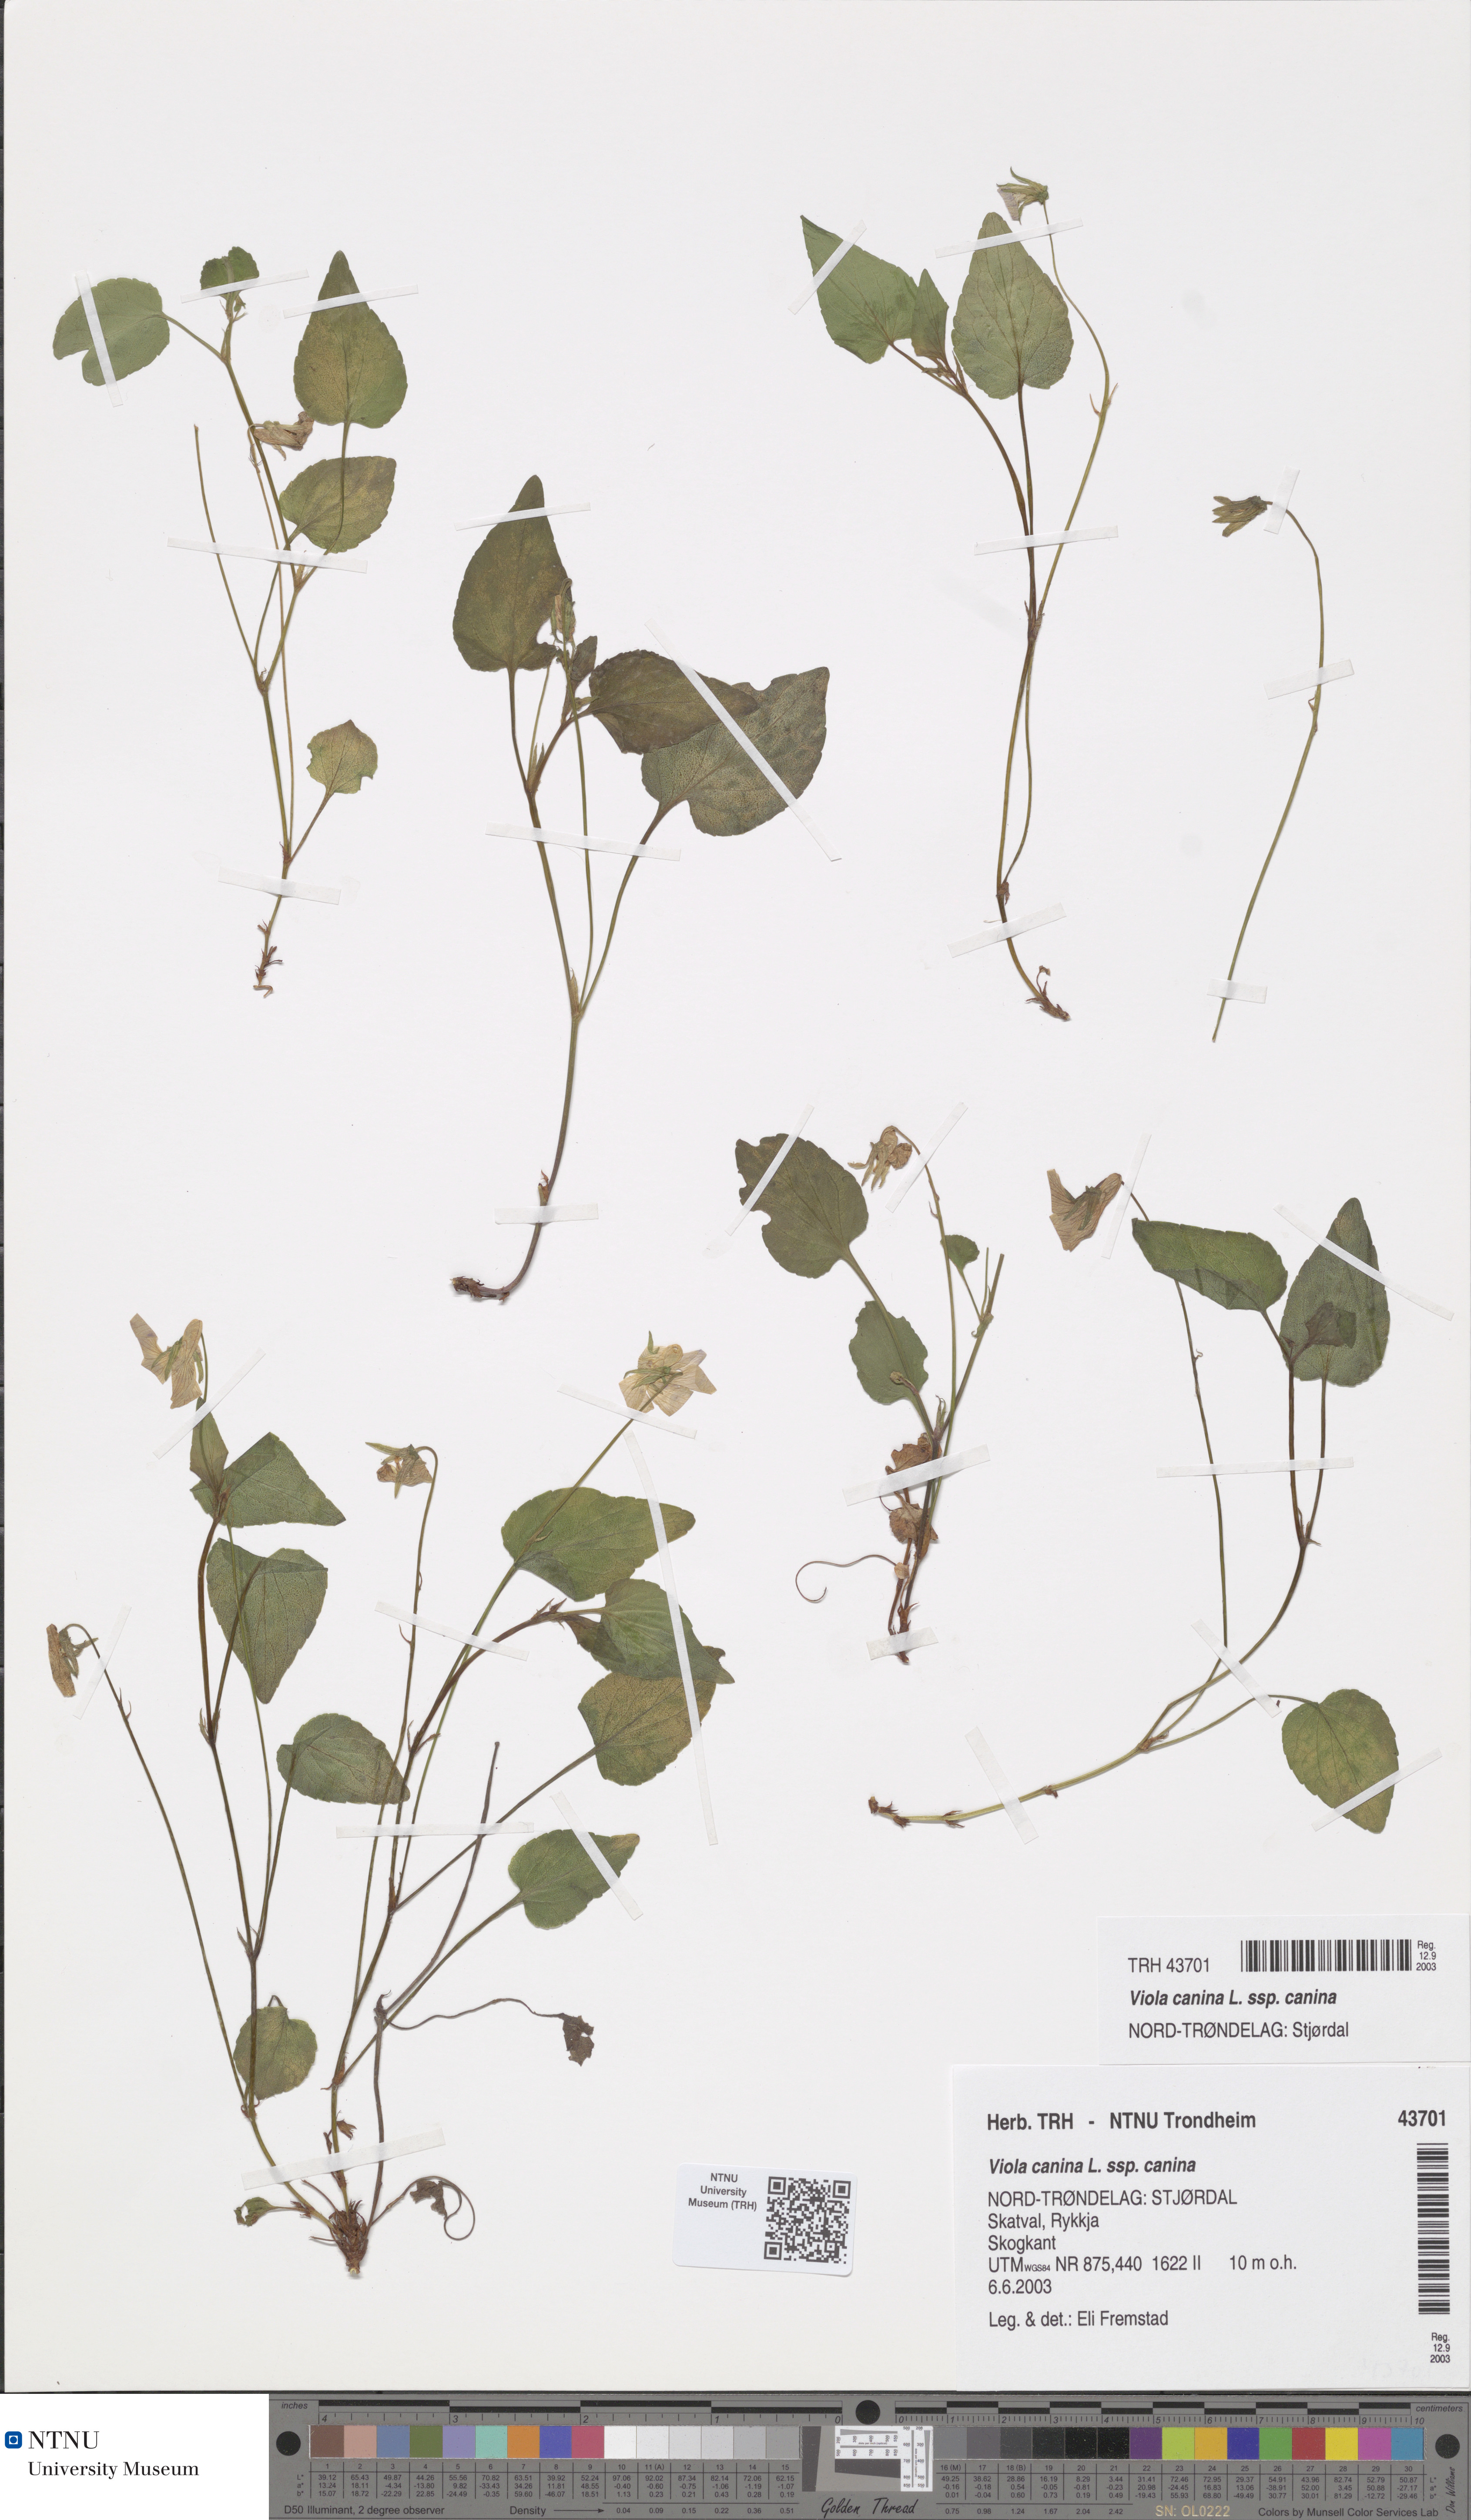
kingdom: Plantae
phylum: Tracheophyta
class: Magnoliopsida
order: Malpighiales
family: Violaceae
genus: Viola
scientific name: Viola canina
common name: Heath dog-violet
